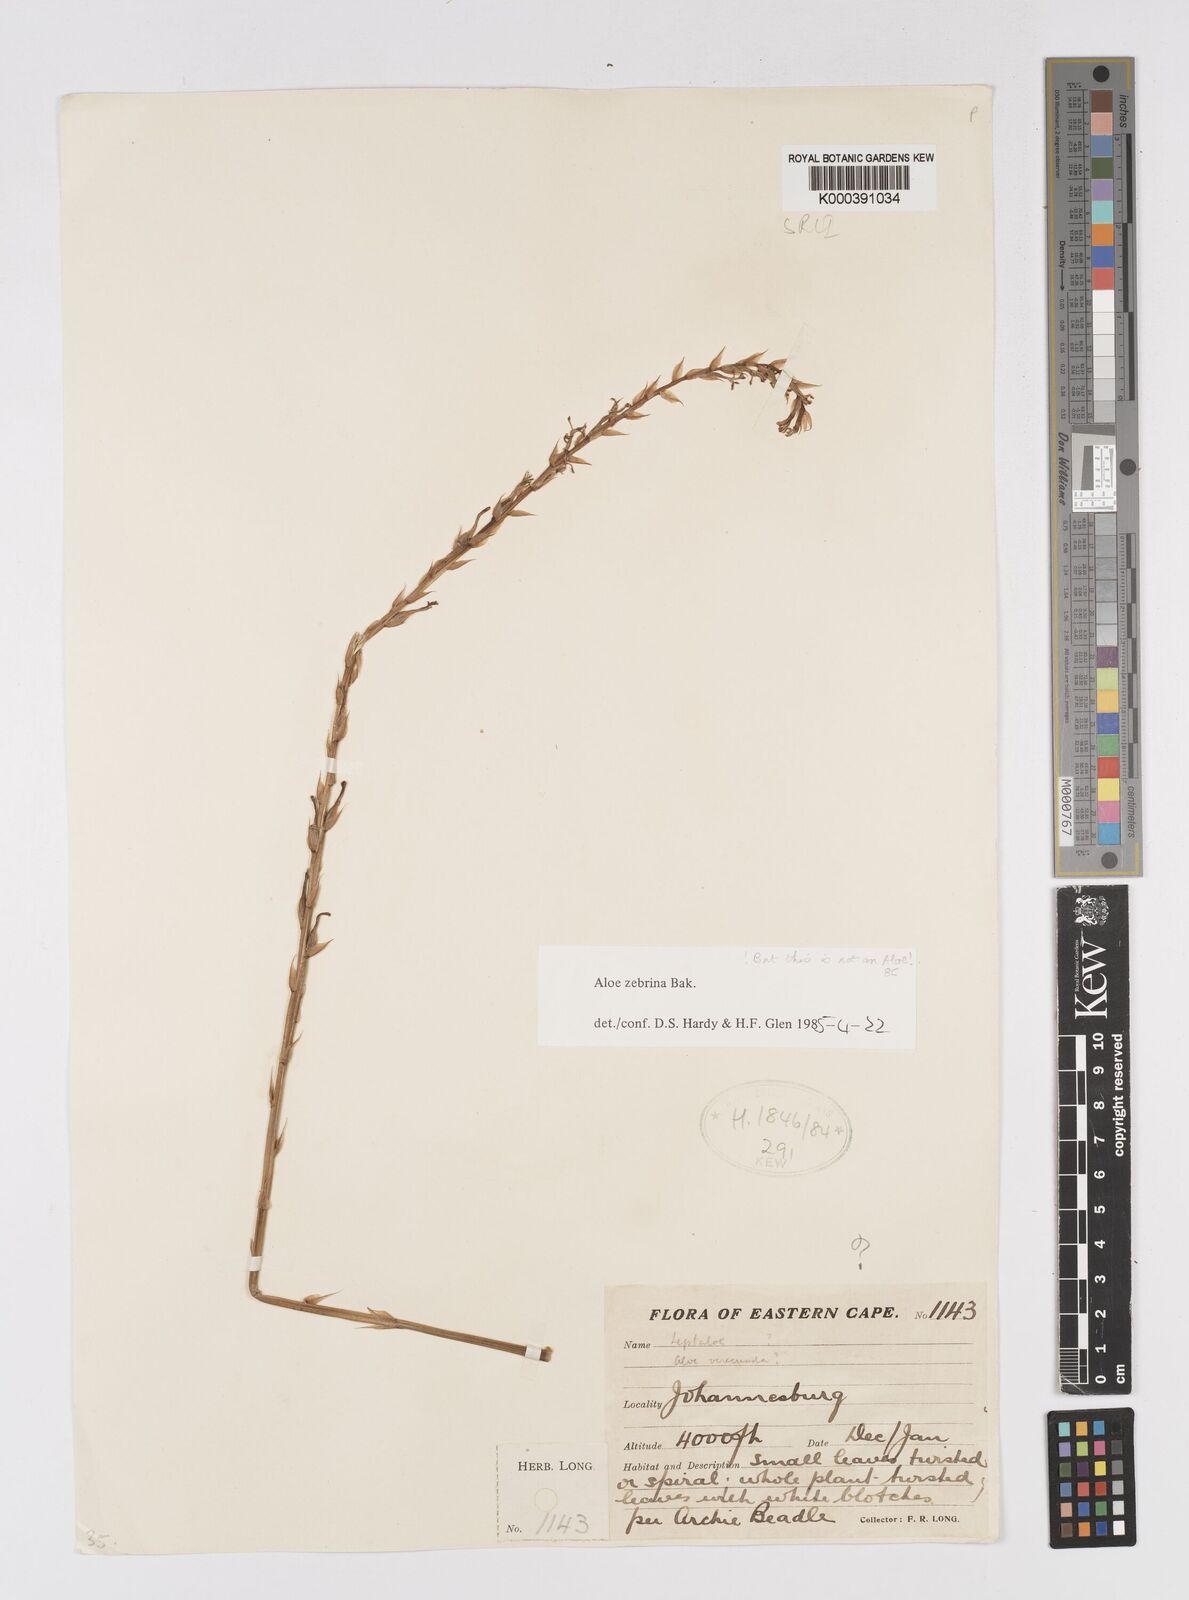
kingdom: Plantae
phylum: Tracheophyta
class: Liliopsida
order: Asparagales
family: Asphodelaceae
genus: Aloe
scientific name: Aloe zebrina
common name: Zebra-leaf aloe
